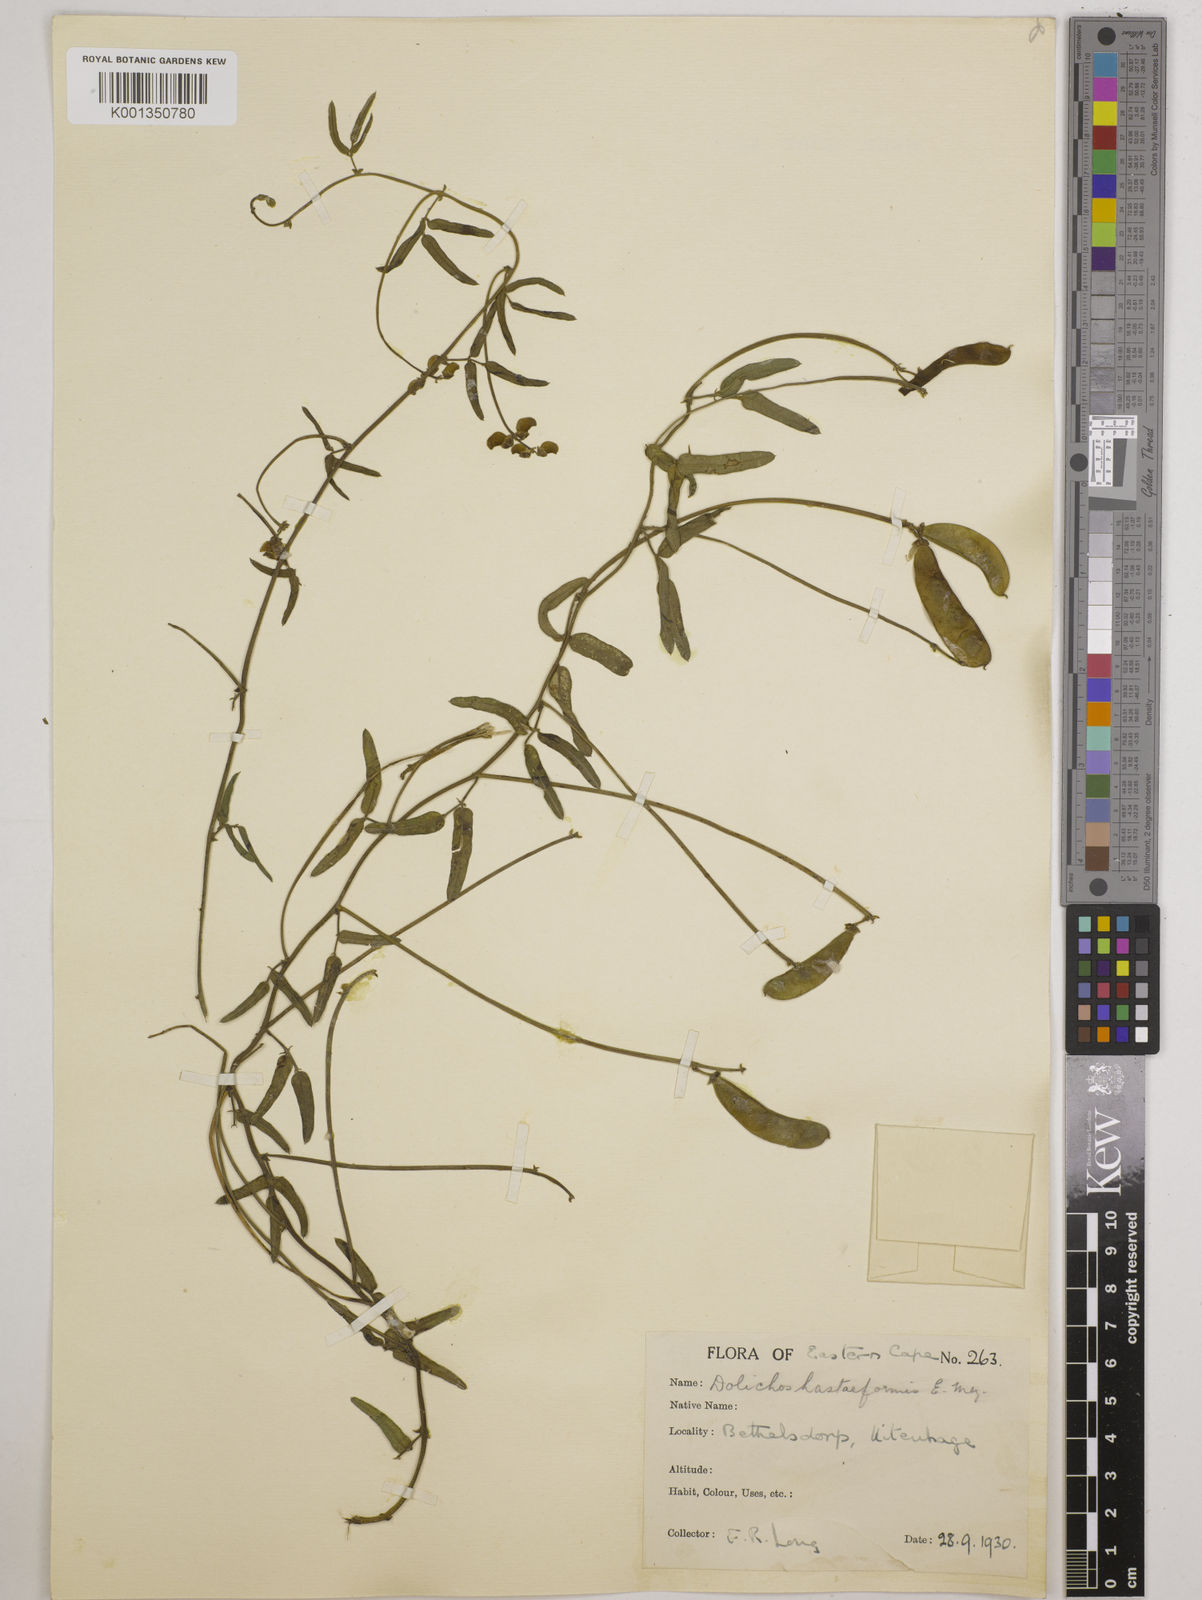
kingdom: Plantae
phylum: Tracheophyta
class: Magnoliopsida
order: Fabales
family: Fabaceae
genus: Dolichos
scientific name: Dolichos
